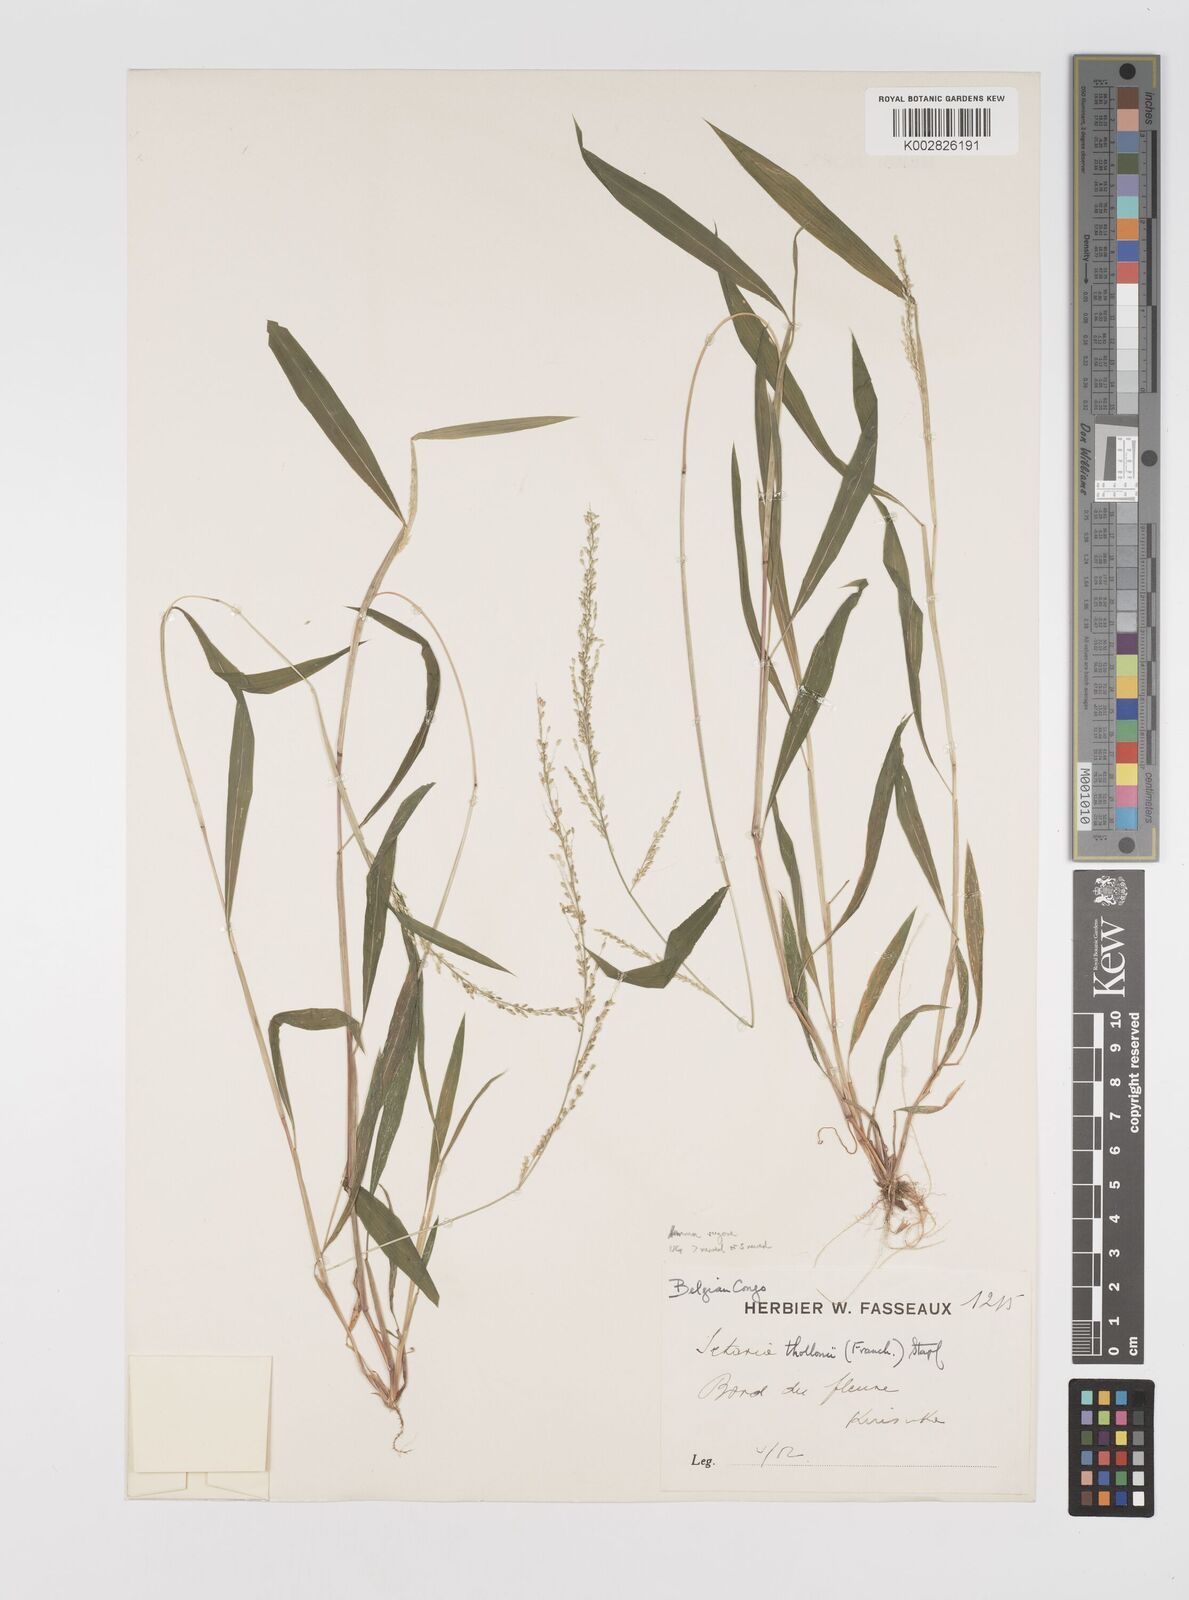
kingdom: Plantae
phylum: Tracheophyta
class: Liliopsida
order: Poales
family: Poaceae
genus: Setaria
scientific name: Setaria homonyma
